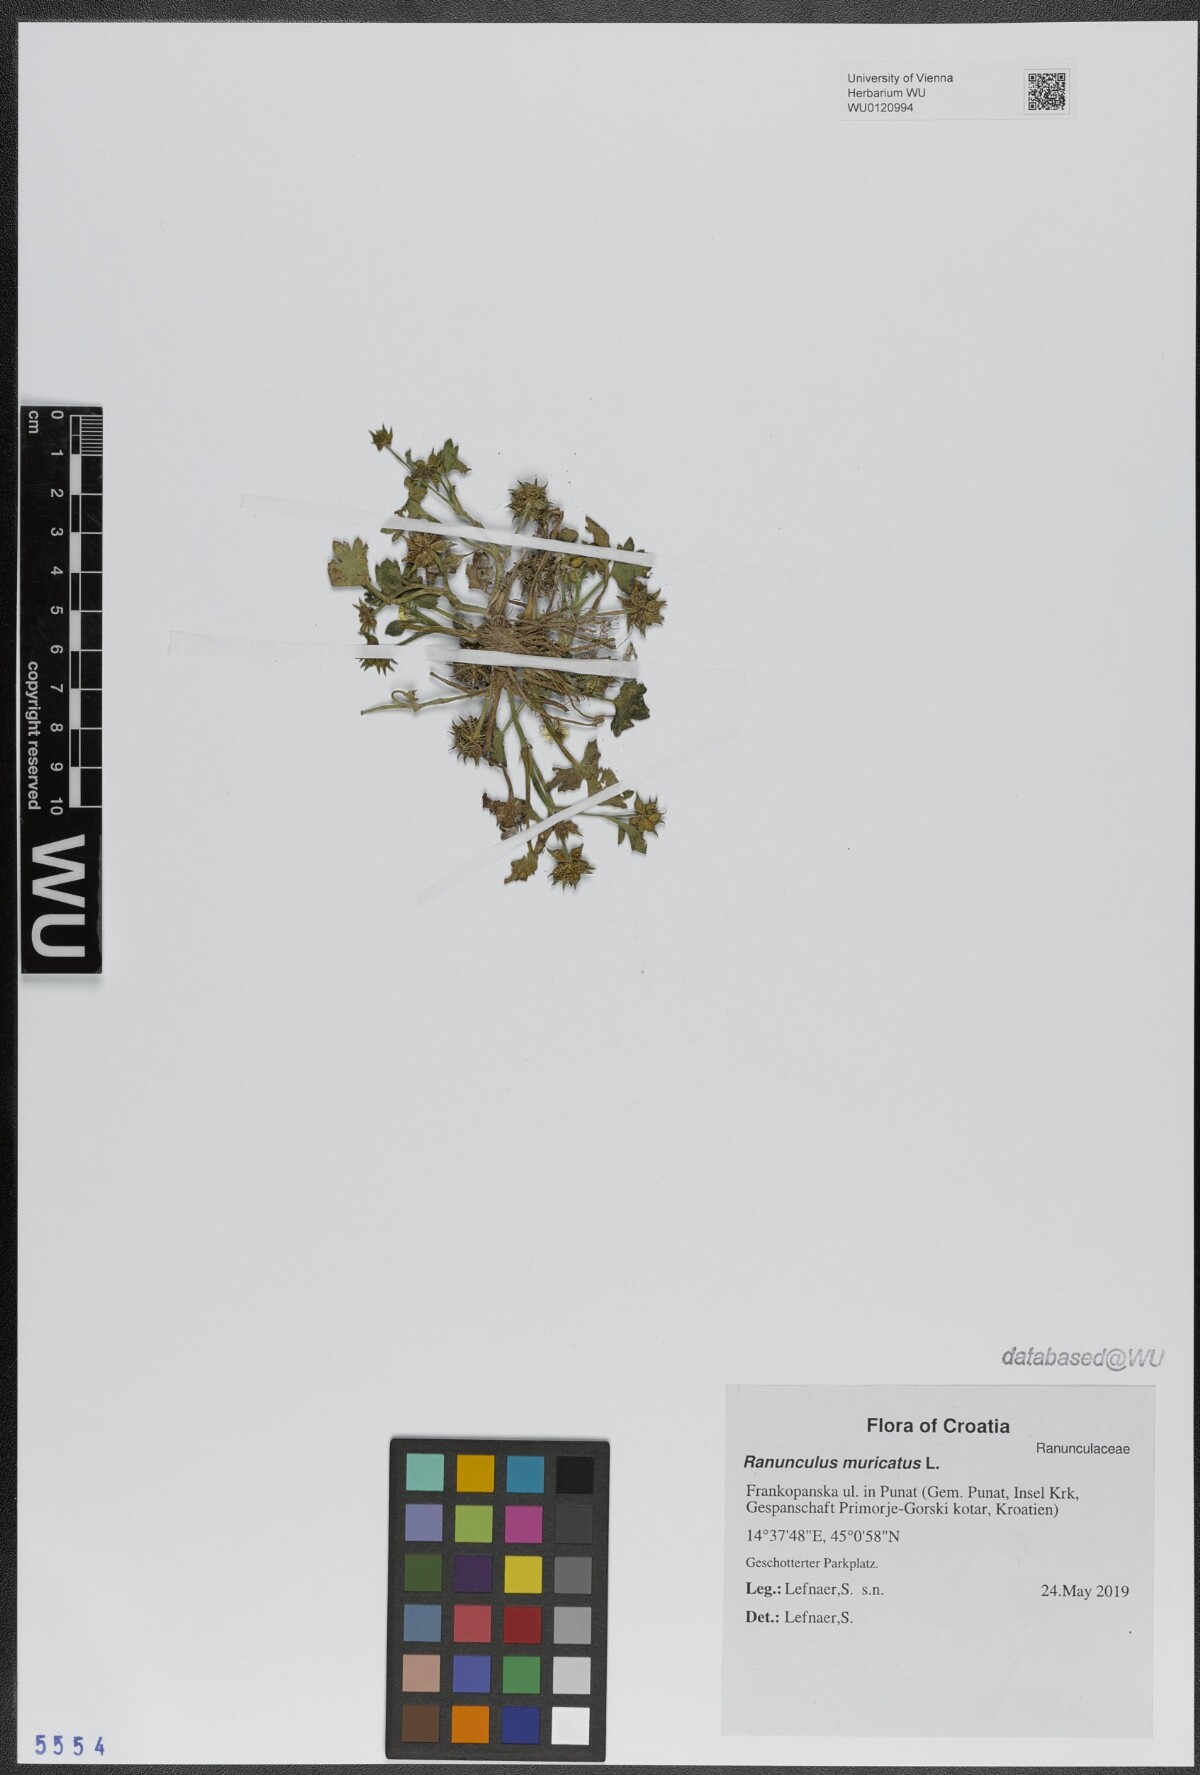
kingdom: Plantae
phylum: Tracheophyta
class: Magnoliopsida
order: Ranunculales
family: Ranunculaceae
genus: Ranunculus
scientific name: Ranunculus muricatus
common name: Rough-fruited buttercup
